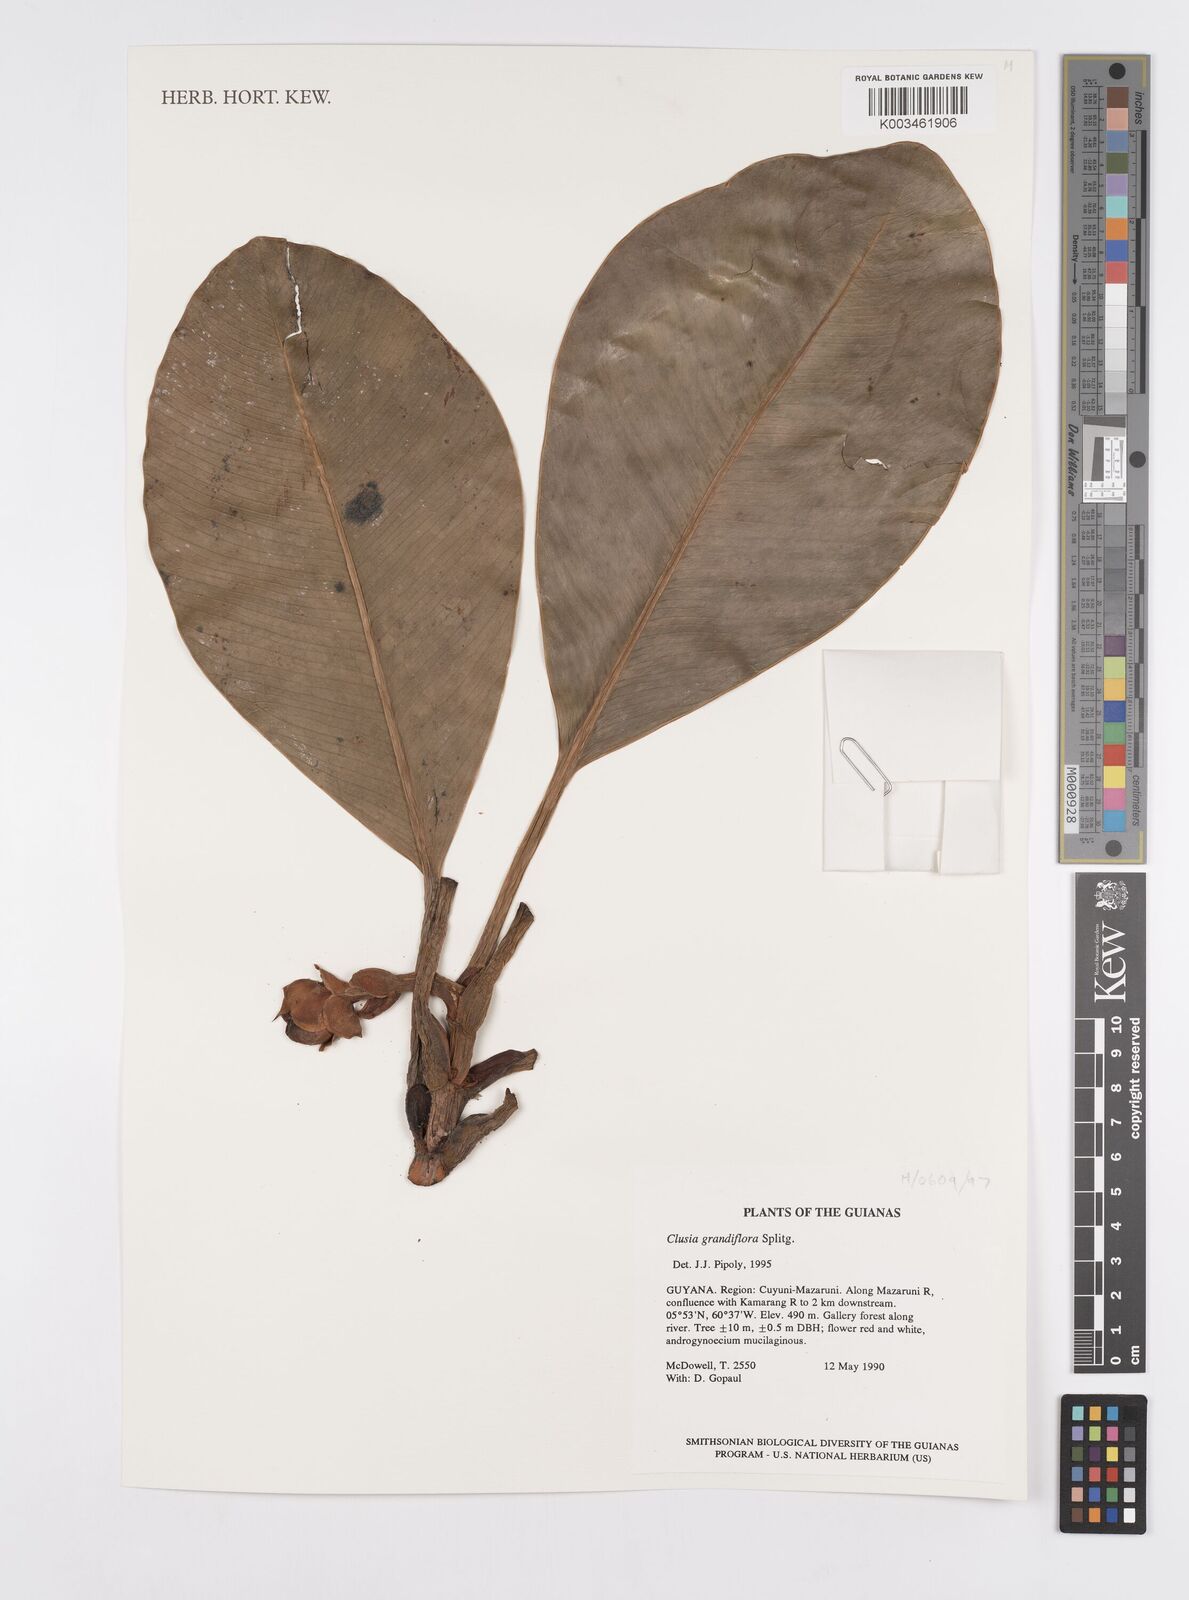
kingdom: Plantae
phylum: Tracheophyta
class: Magnoliopsida
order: Malpighiales
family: Clusiaceae
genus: Clusia
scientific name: Clusia grandiflora
